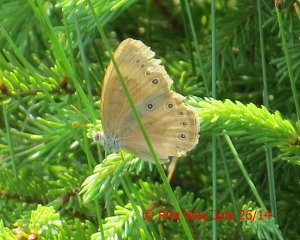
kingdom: Animalia
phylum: Arthropoda
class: Insecta
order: Lepidoptera
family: Nymphalidae
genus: Lethe
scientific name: Lethe eurydice
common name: Eyed Brown
